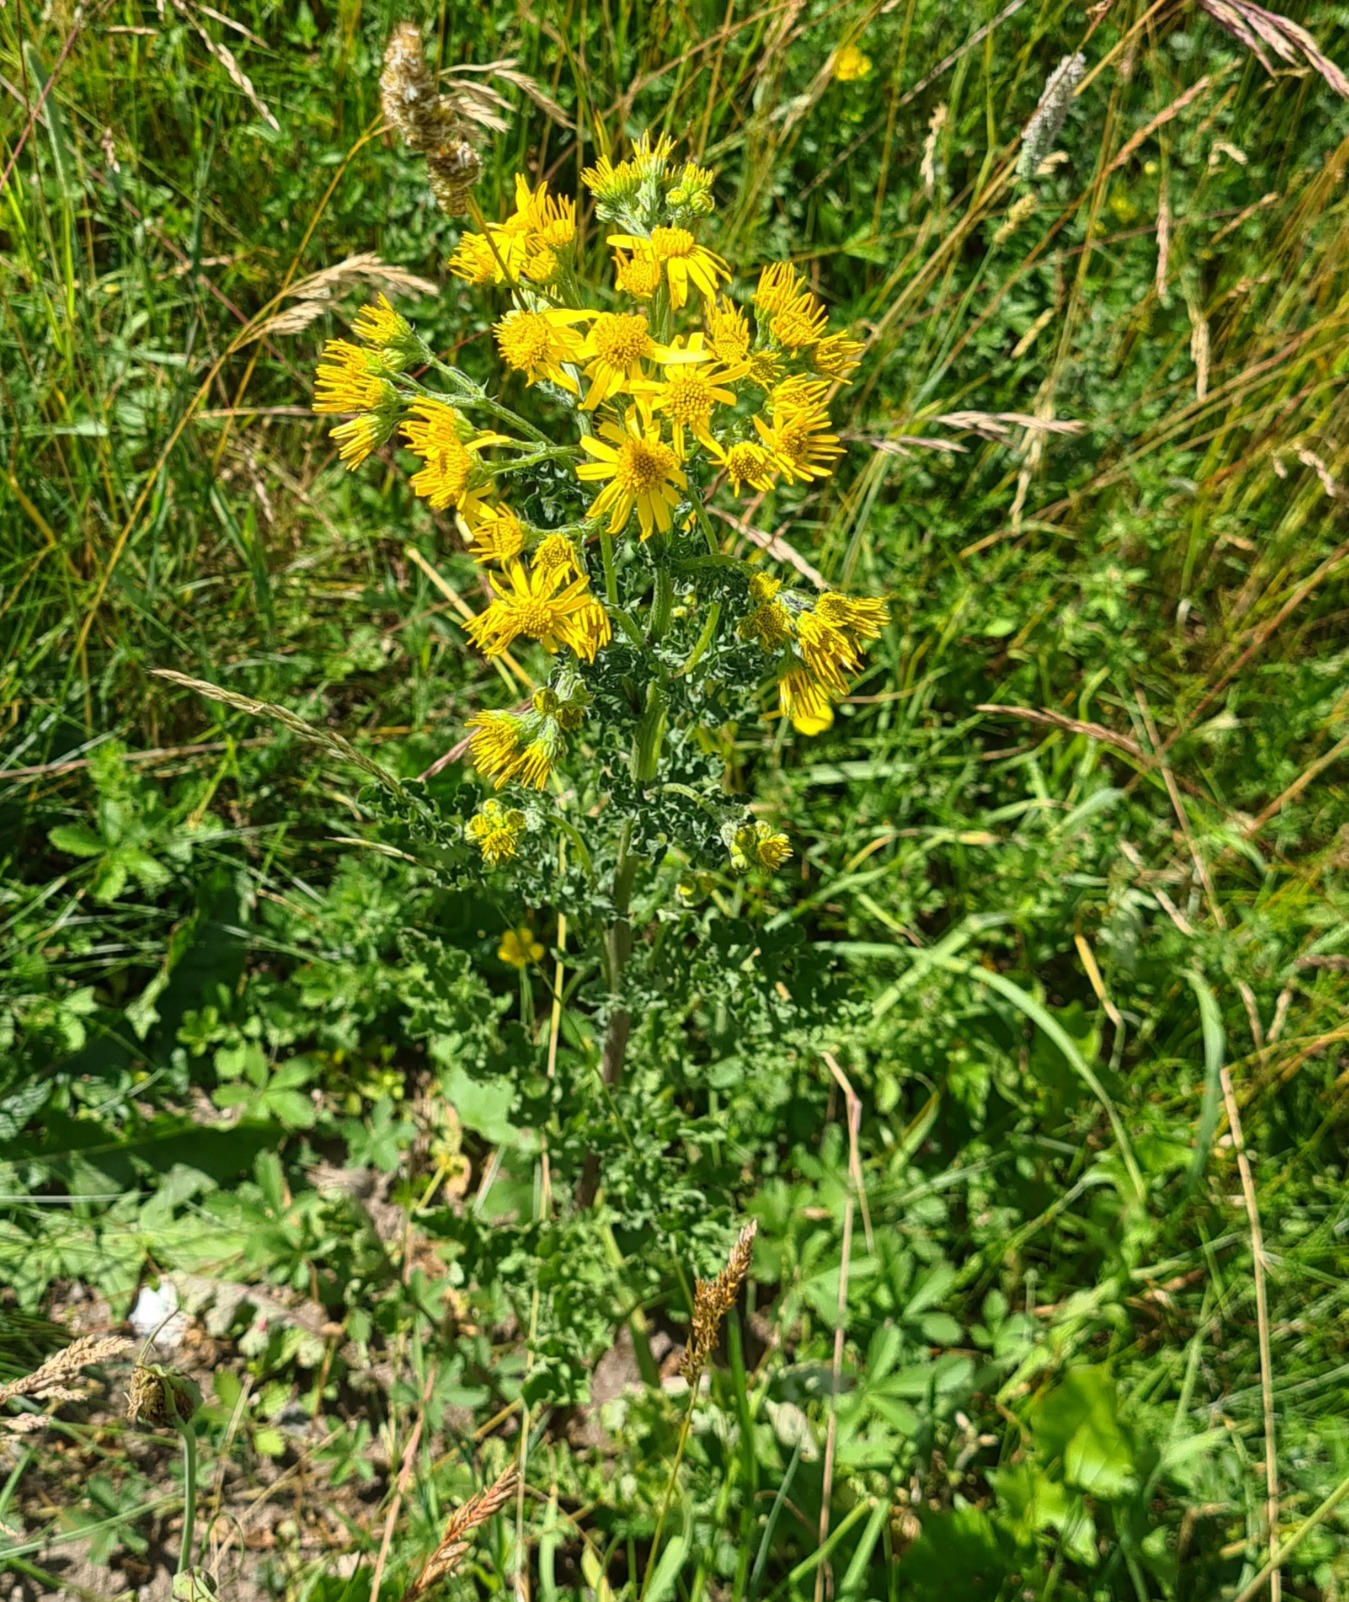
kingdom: Plantae
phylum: Tracheophyta
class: Magnoliopsida
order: Asterales
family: Asteraceae
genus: Jacobaea
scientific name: Jacobaea vulgaris
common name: Eng-brandbæger
